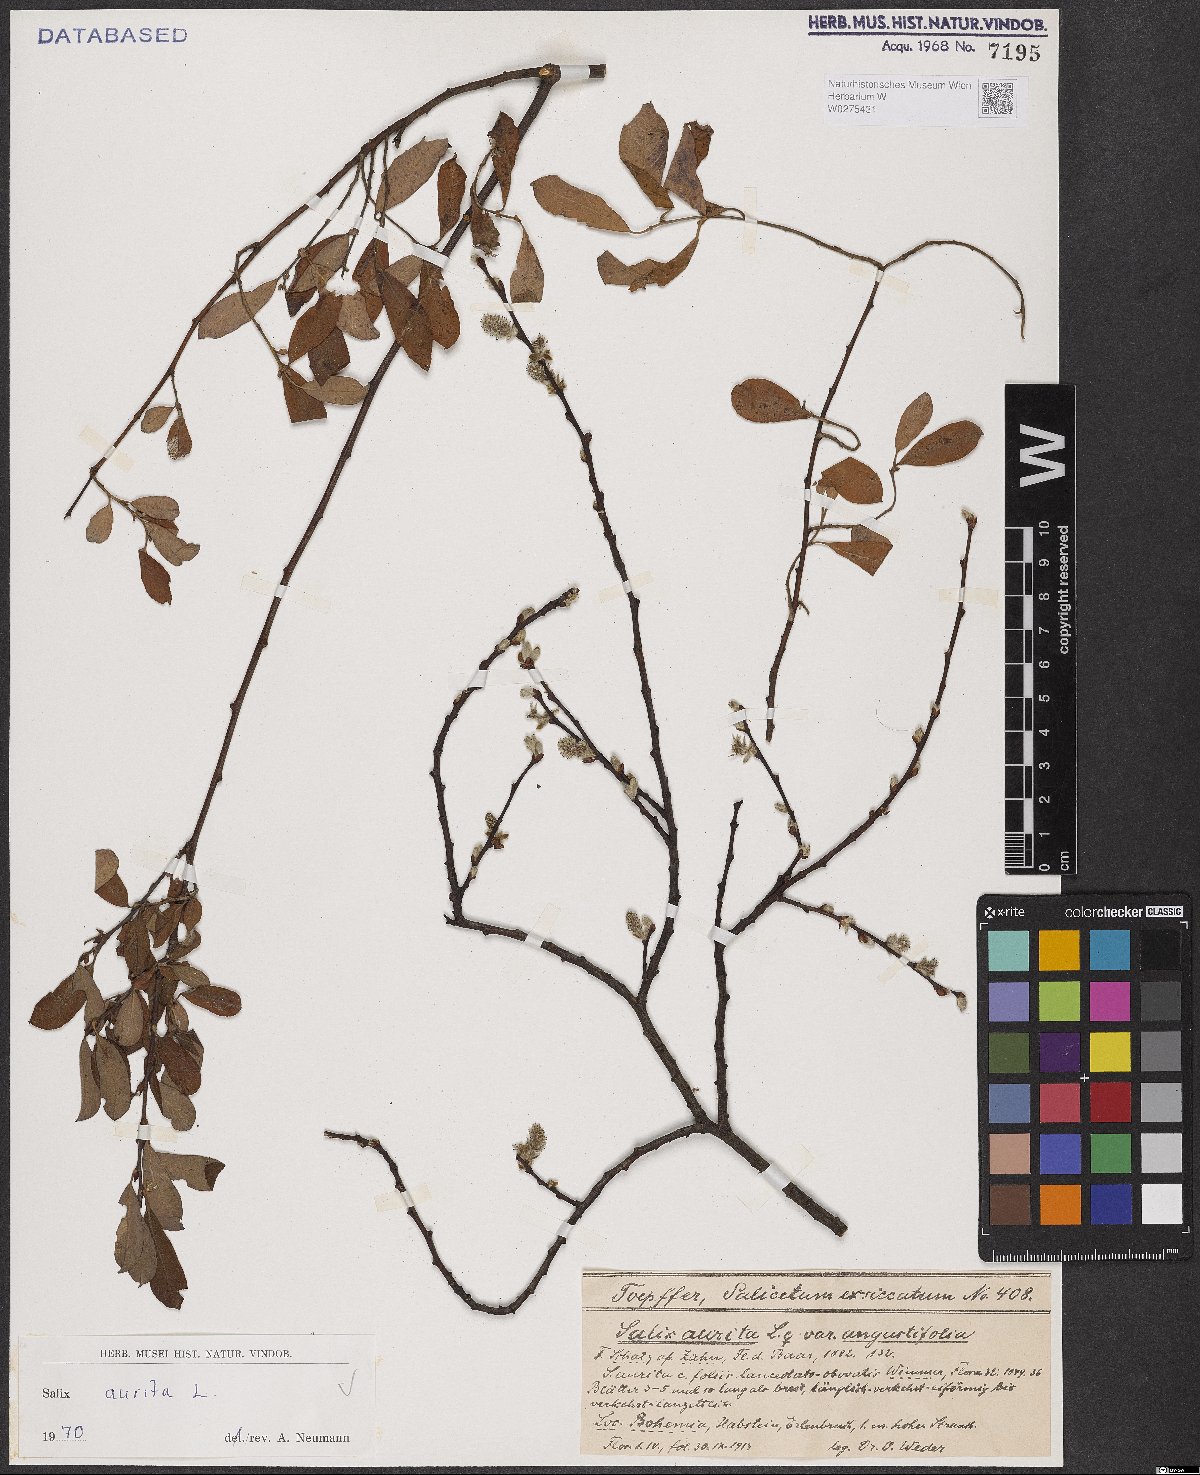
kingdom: Plantae
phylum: Tracheophyta
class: Magnoliopsida
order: Malpighiales
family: Salicaceae
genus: Salix
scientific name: Salix aurita
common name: Eared willow
